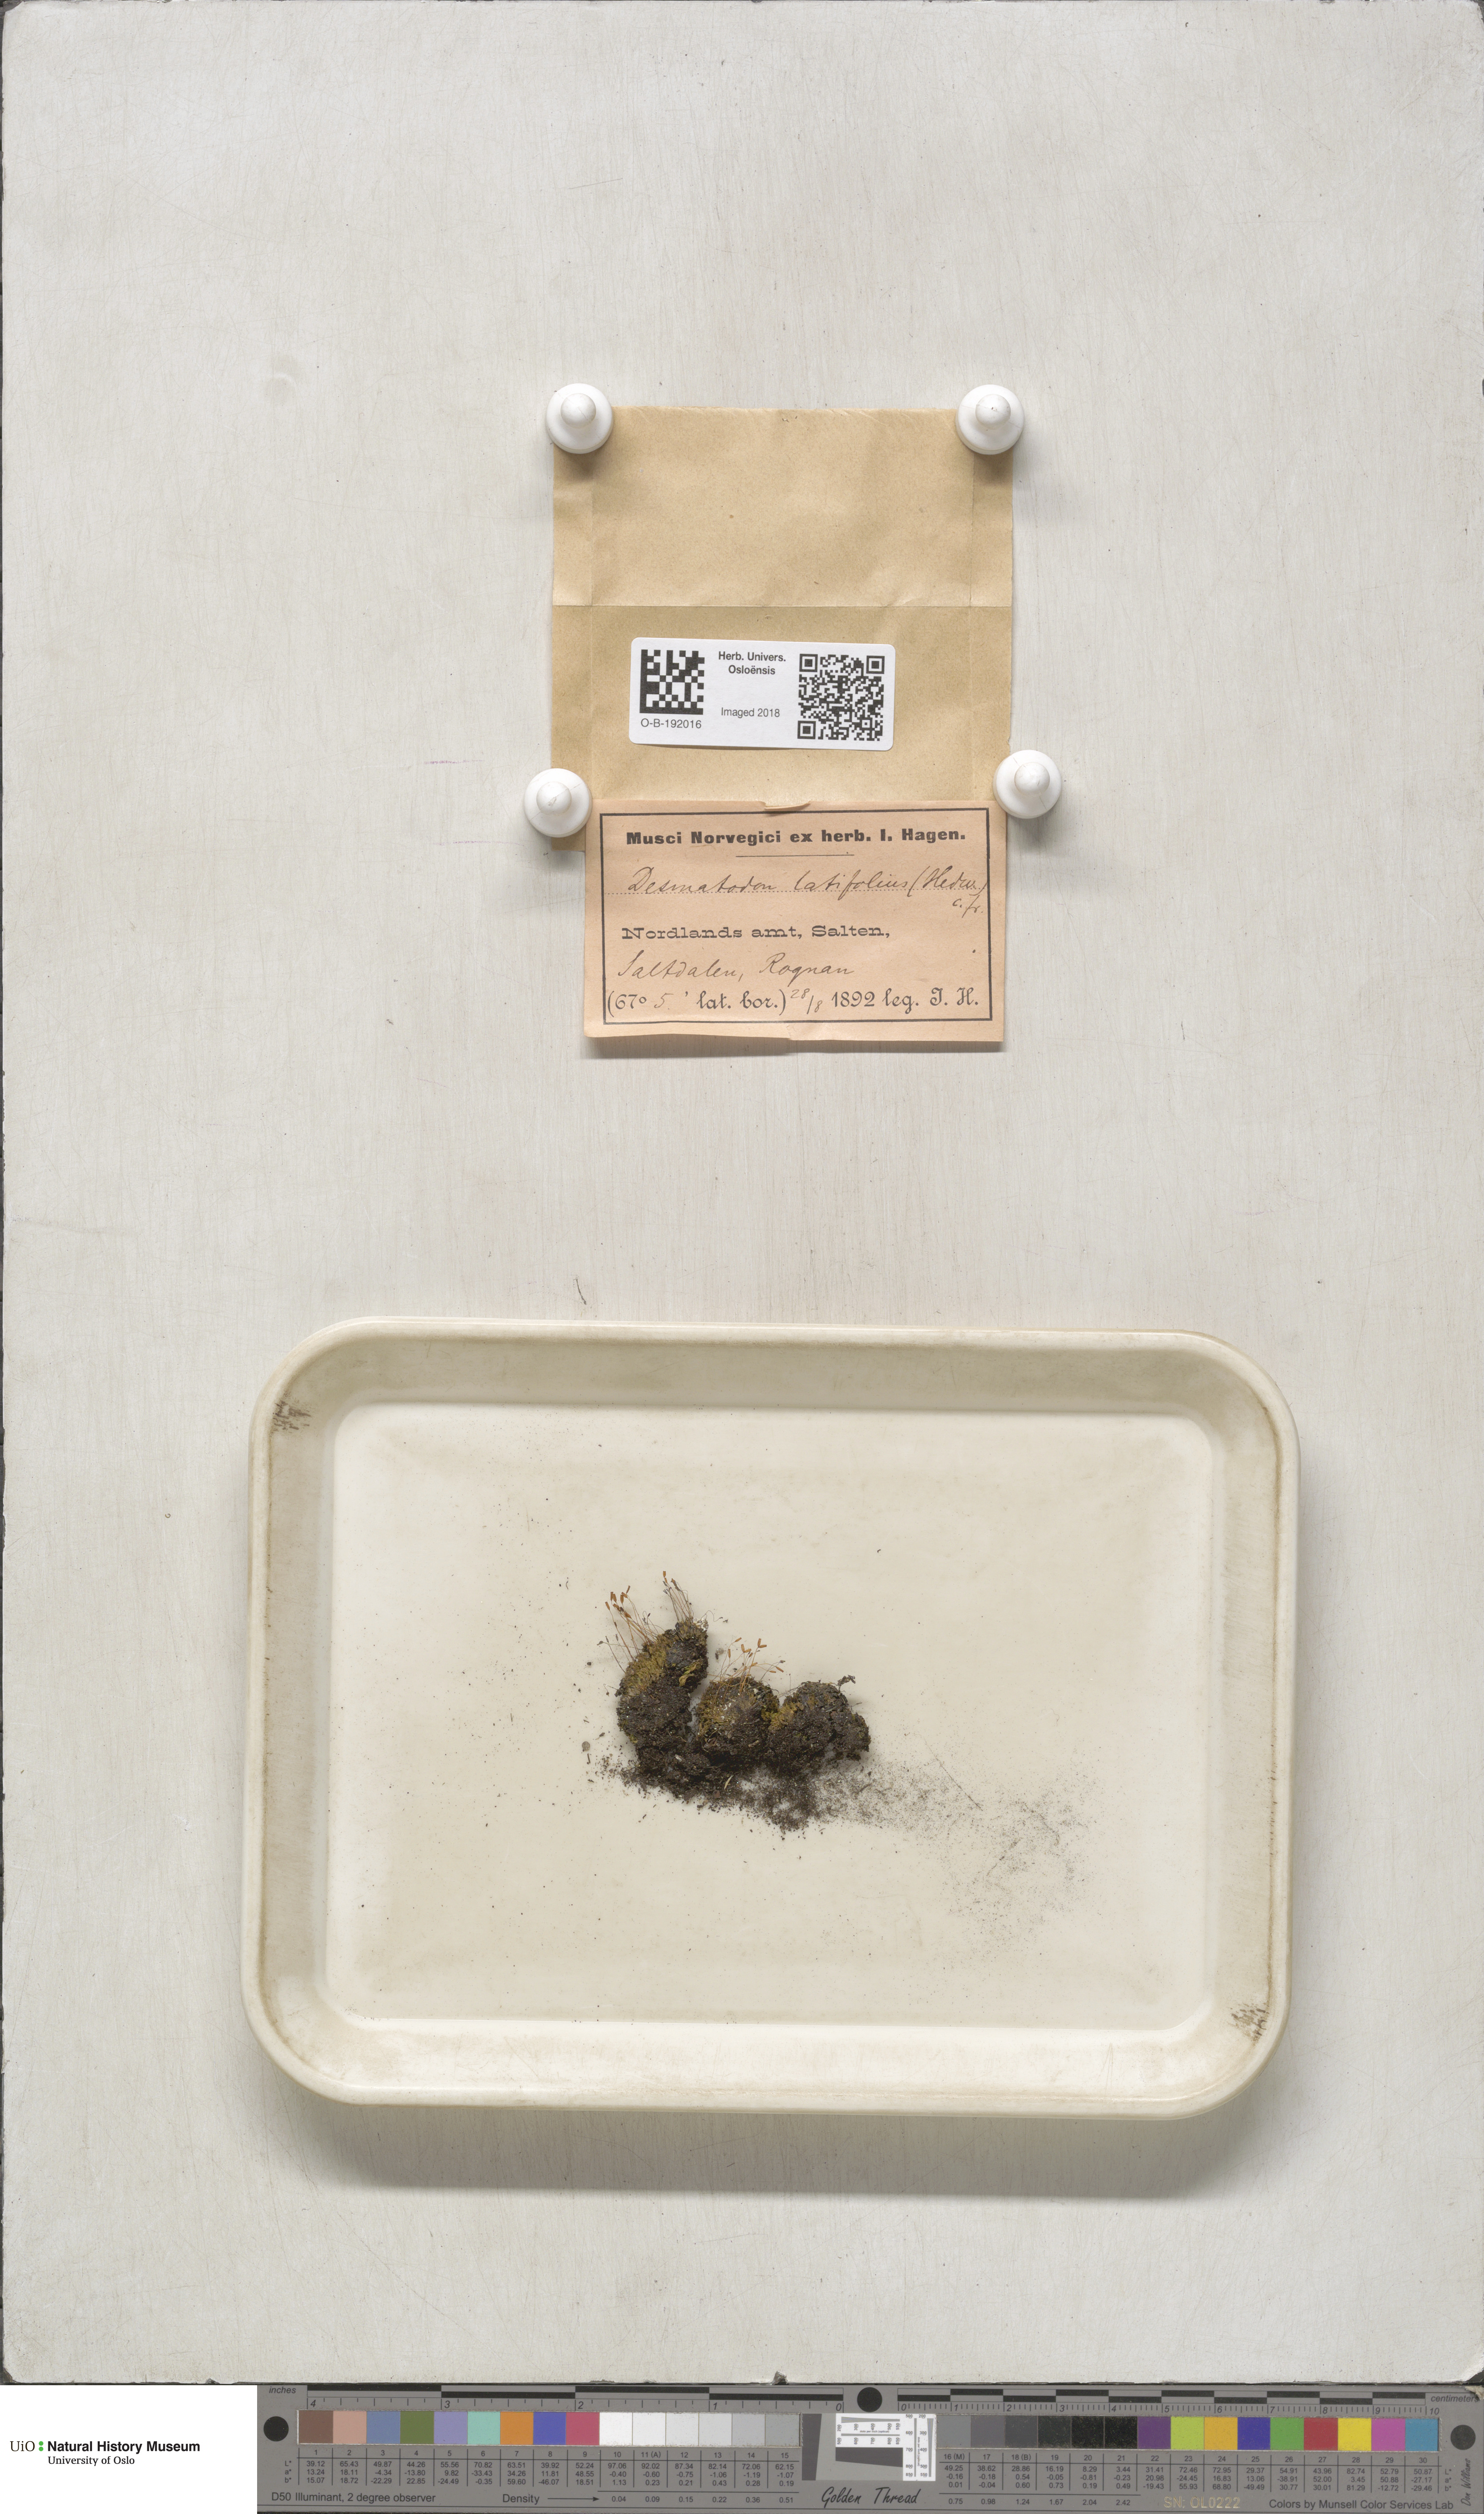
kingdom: Plantae
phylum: Bryophyta
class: Bryopsida
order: Pottiales
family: Pottiaceae
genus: Tortula
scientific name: Tortula hoppeana
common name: Hoppe's screw moss
